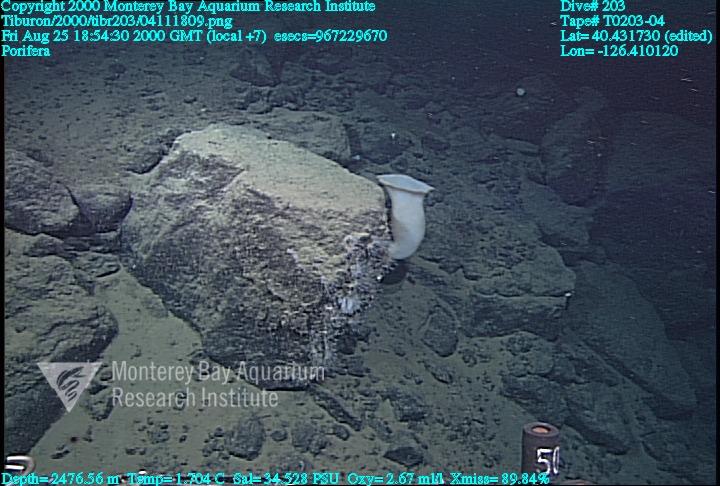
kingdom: Animalia
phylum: Porifera
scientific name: Porifera
